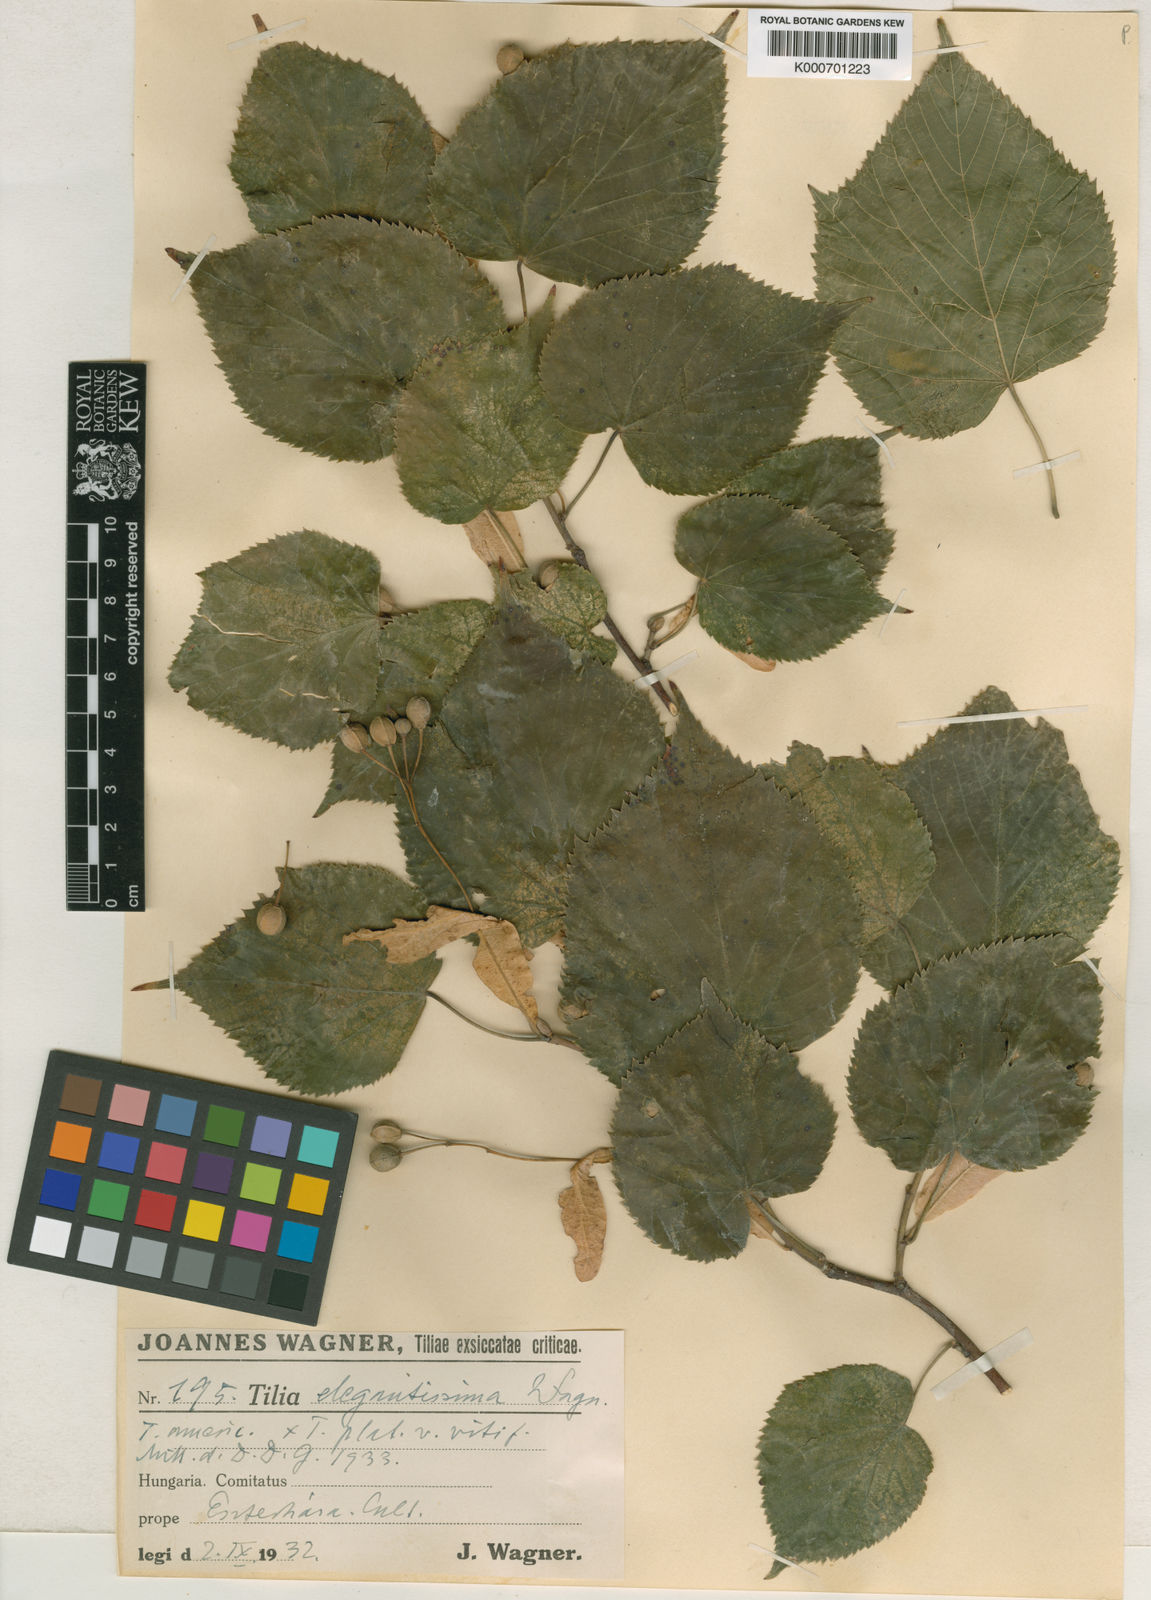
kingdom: Plantae
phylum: Tracheophyta
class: Magnoliopsida
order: Malvales
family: Malvaceae
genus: Tilia
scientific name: Tilia flaccida
